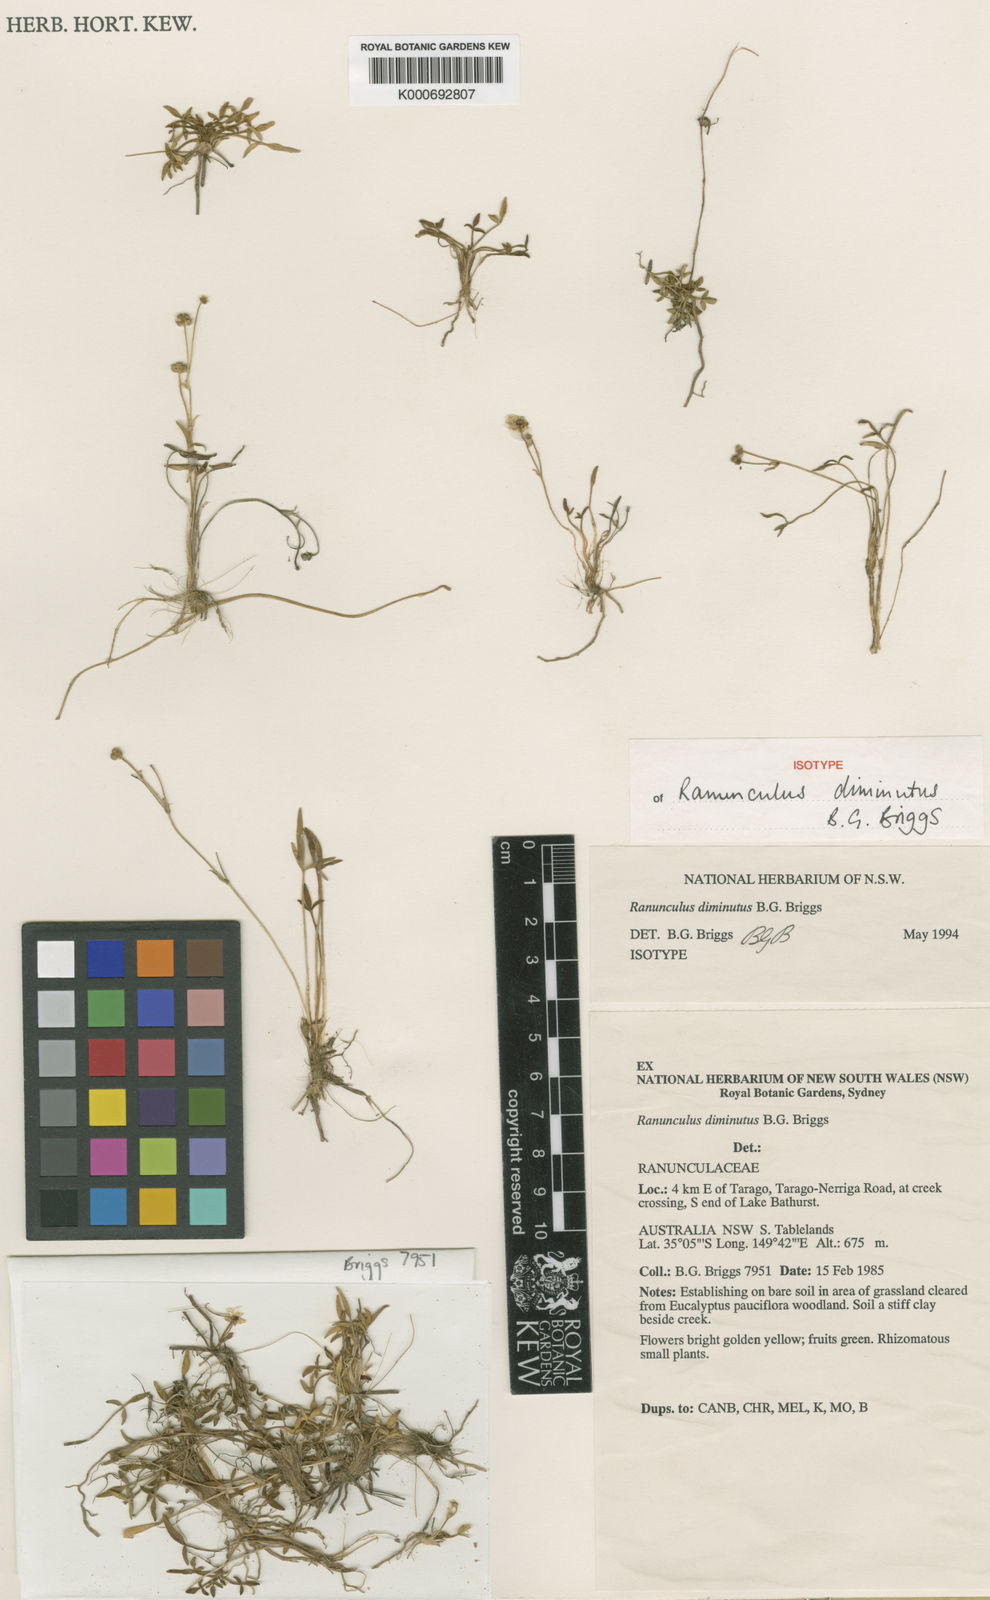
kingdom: Plantae
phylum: Tracheophyta
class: Magnoliopsida
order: Ranunculales
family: Ranunculaceae
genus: Ranunculus
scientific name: Ranunculus diminutus
